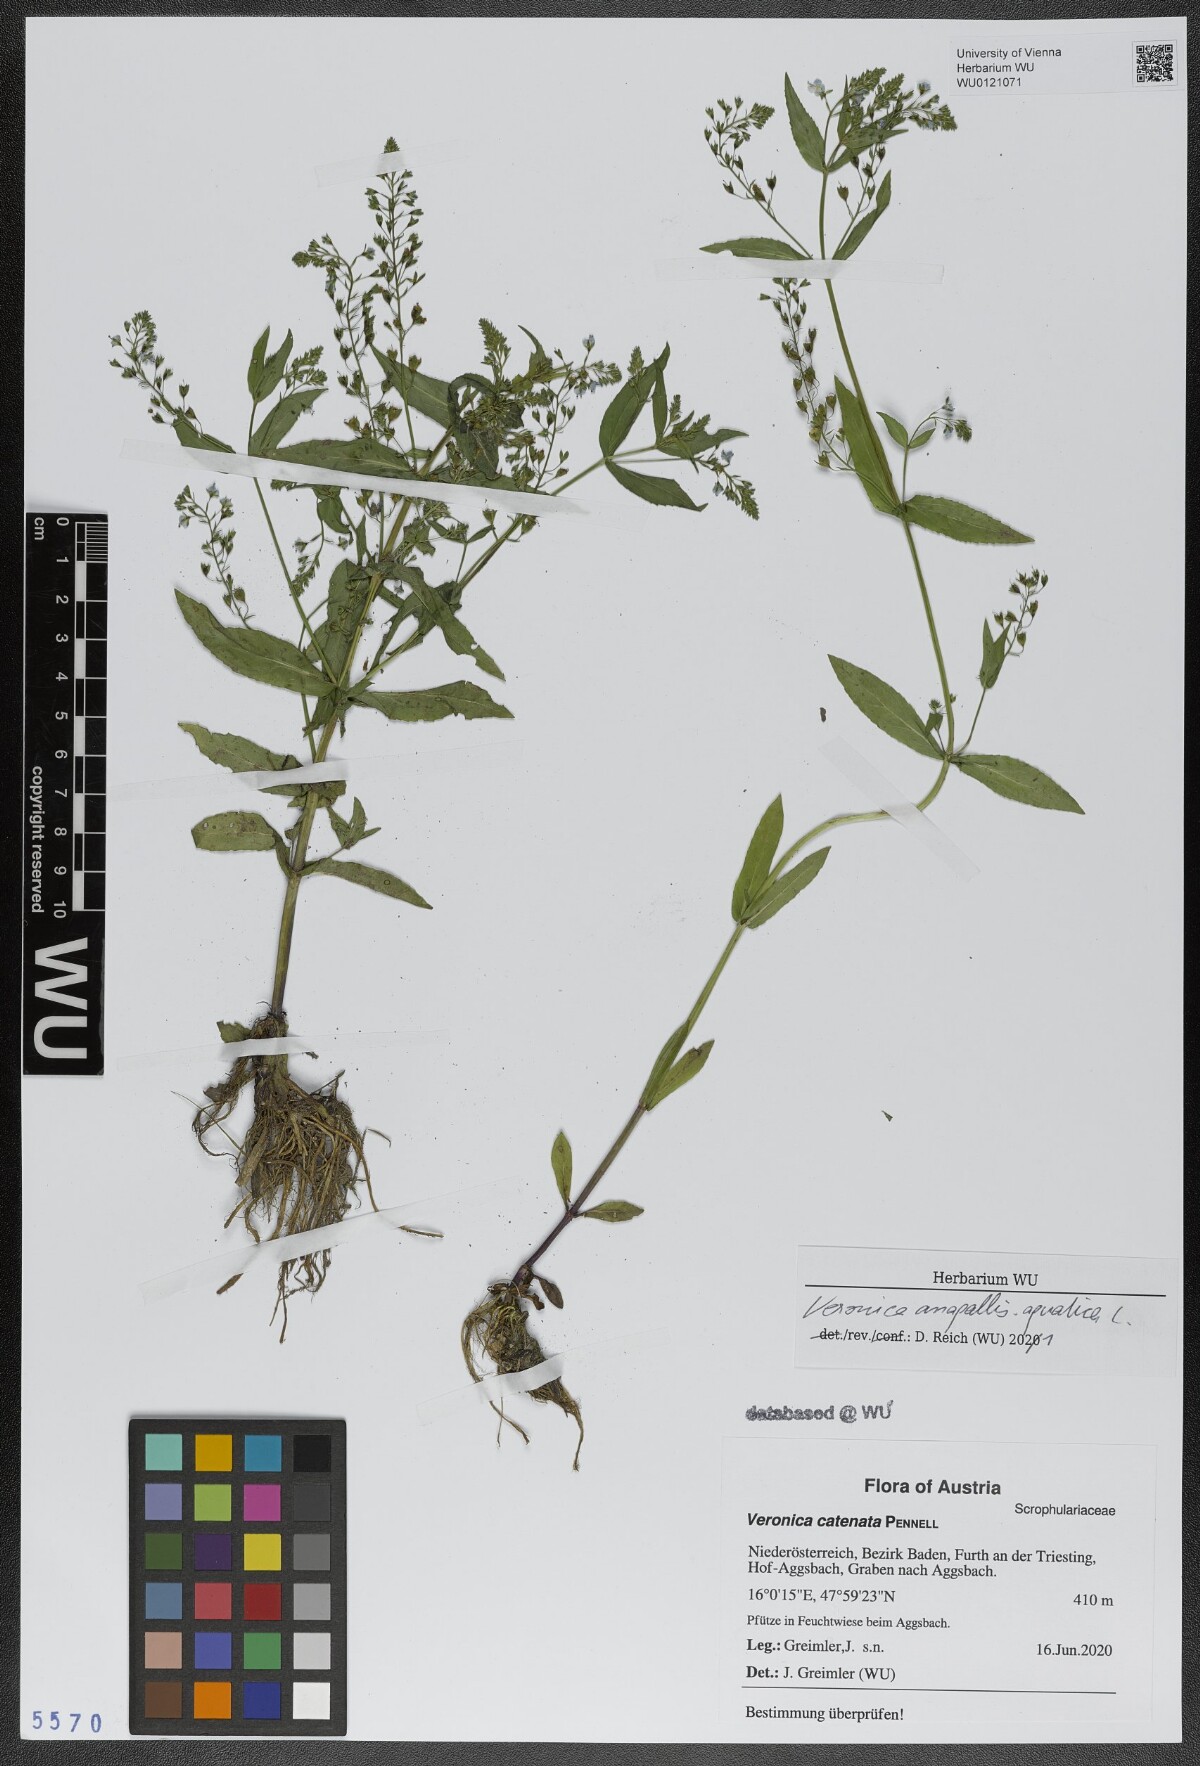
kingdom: Plantae
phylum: Tracheophyta
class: Magnoliopsida
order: Lamiales
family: Plantaginaceae
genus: Veronica
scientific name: Veronica anagallis-aquatica
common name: Water speedwell
